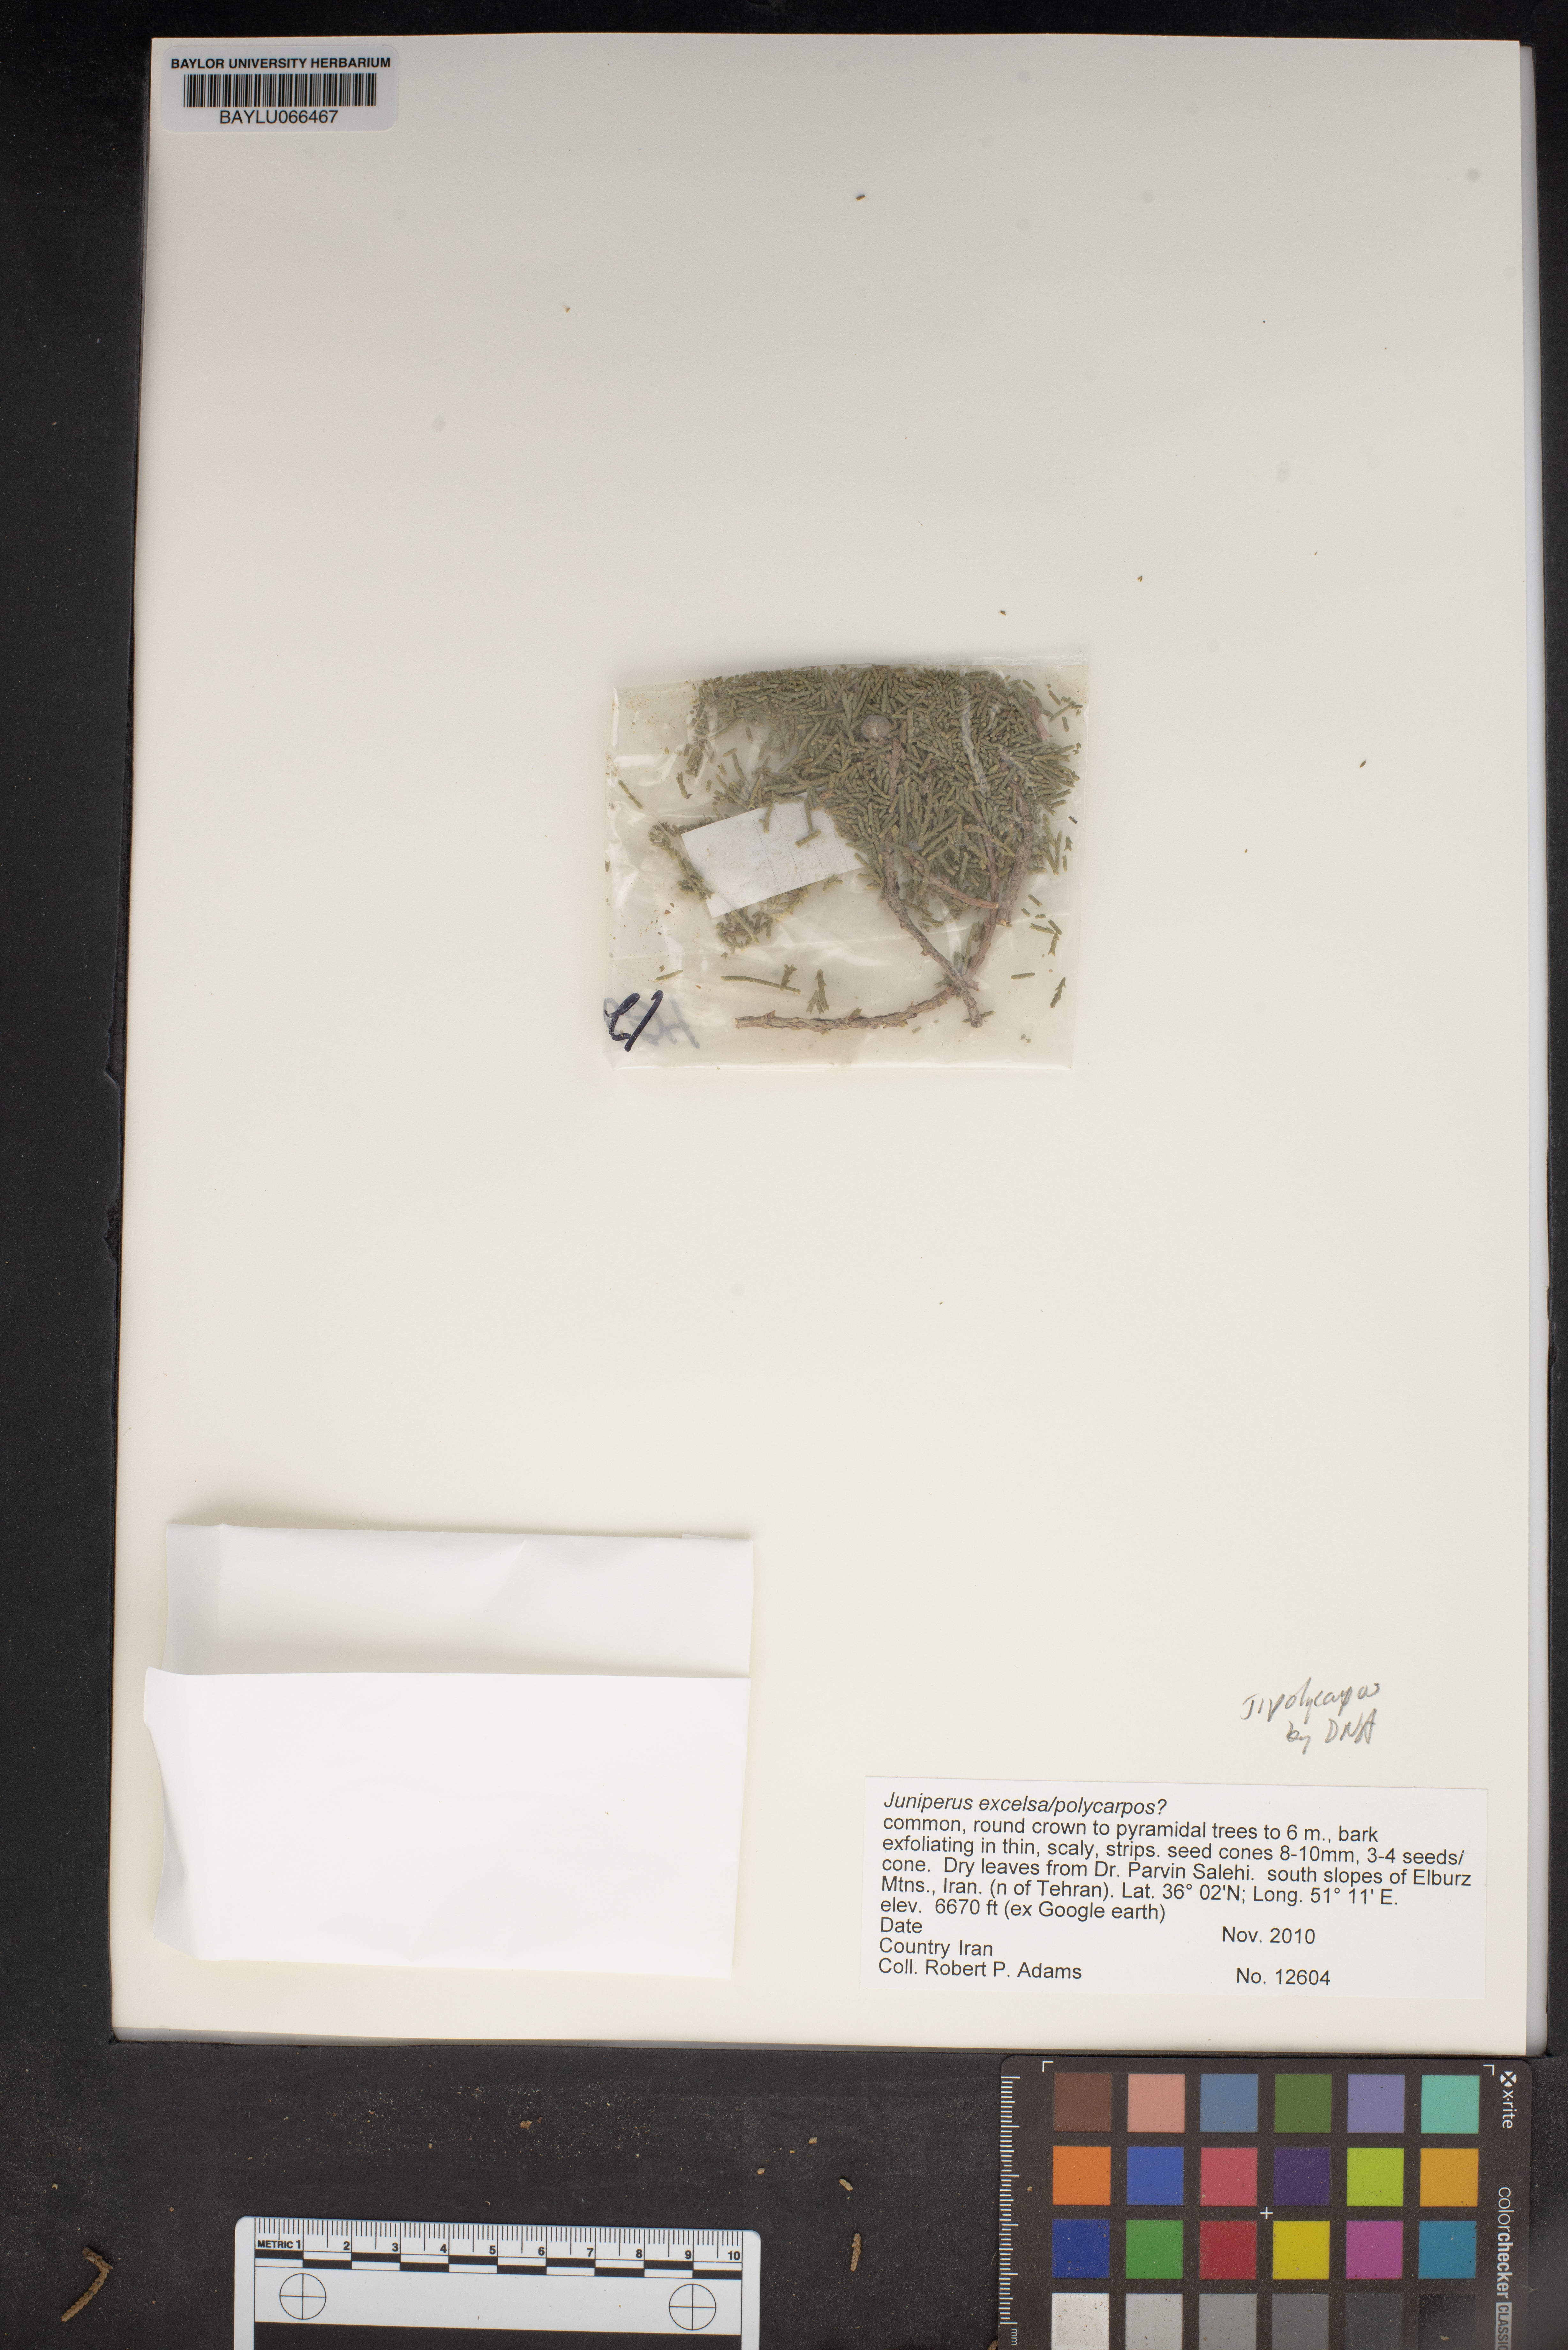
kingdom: Plantae
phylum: Tracheophyta
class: Pinopsida
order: Pinales
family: Cupressaceae
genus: Juniperus
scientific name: Juniperus excelsa
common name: Crimean juniper
